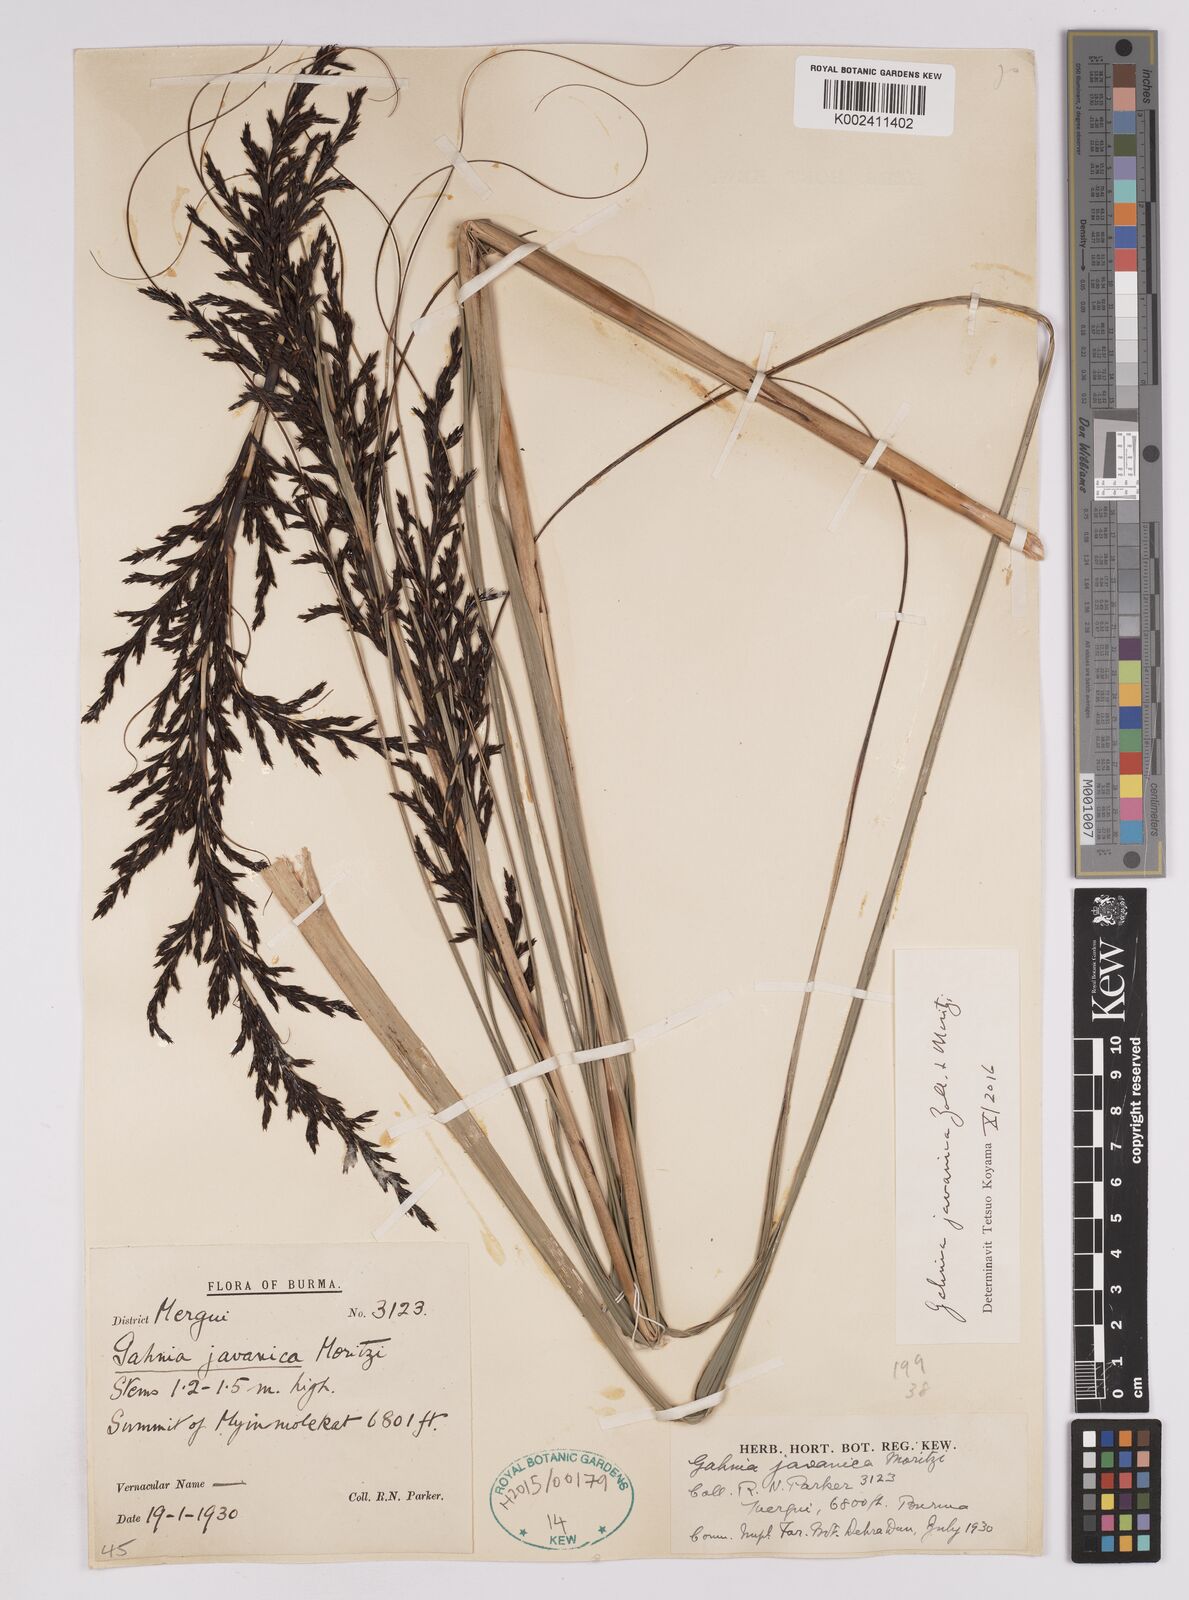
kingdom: Plantae
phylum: Tracheophyta
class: Liliopsida
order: Poales
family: Cyperaceae
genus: Gahnia
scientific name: Gahnia javanica
